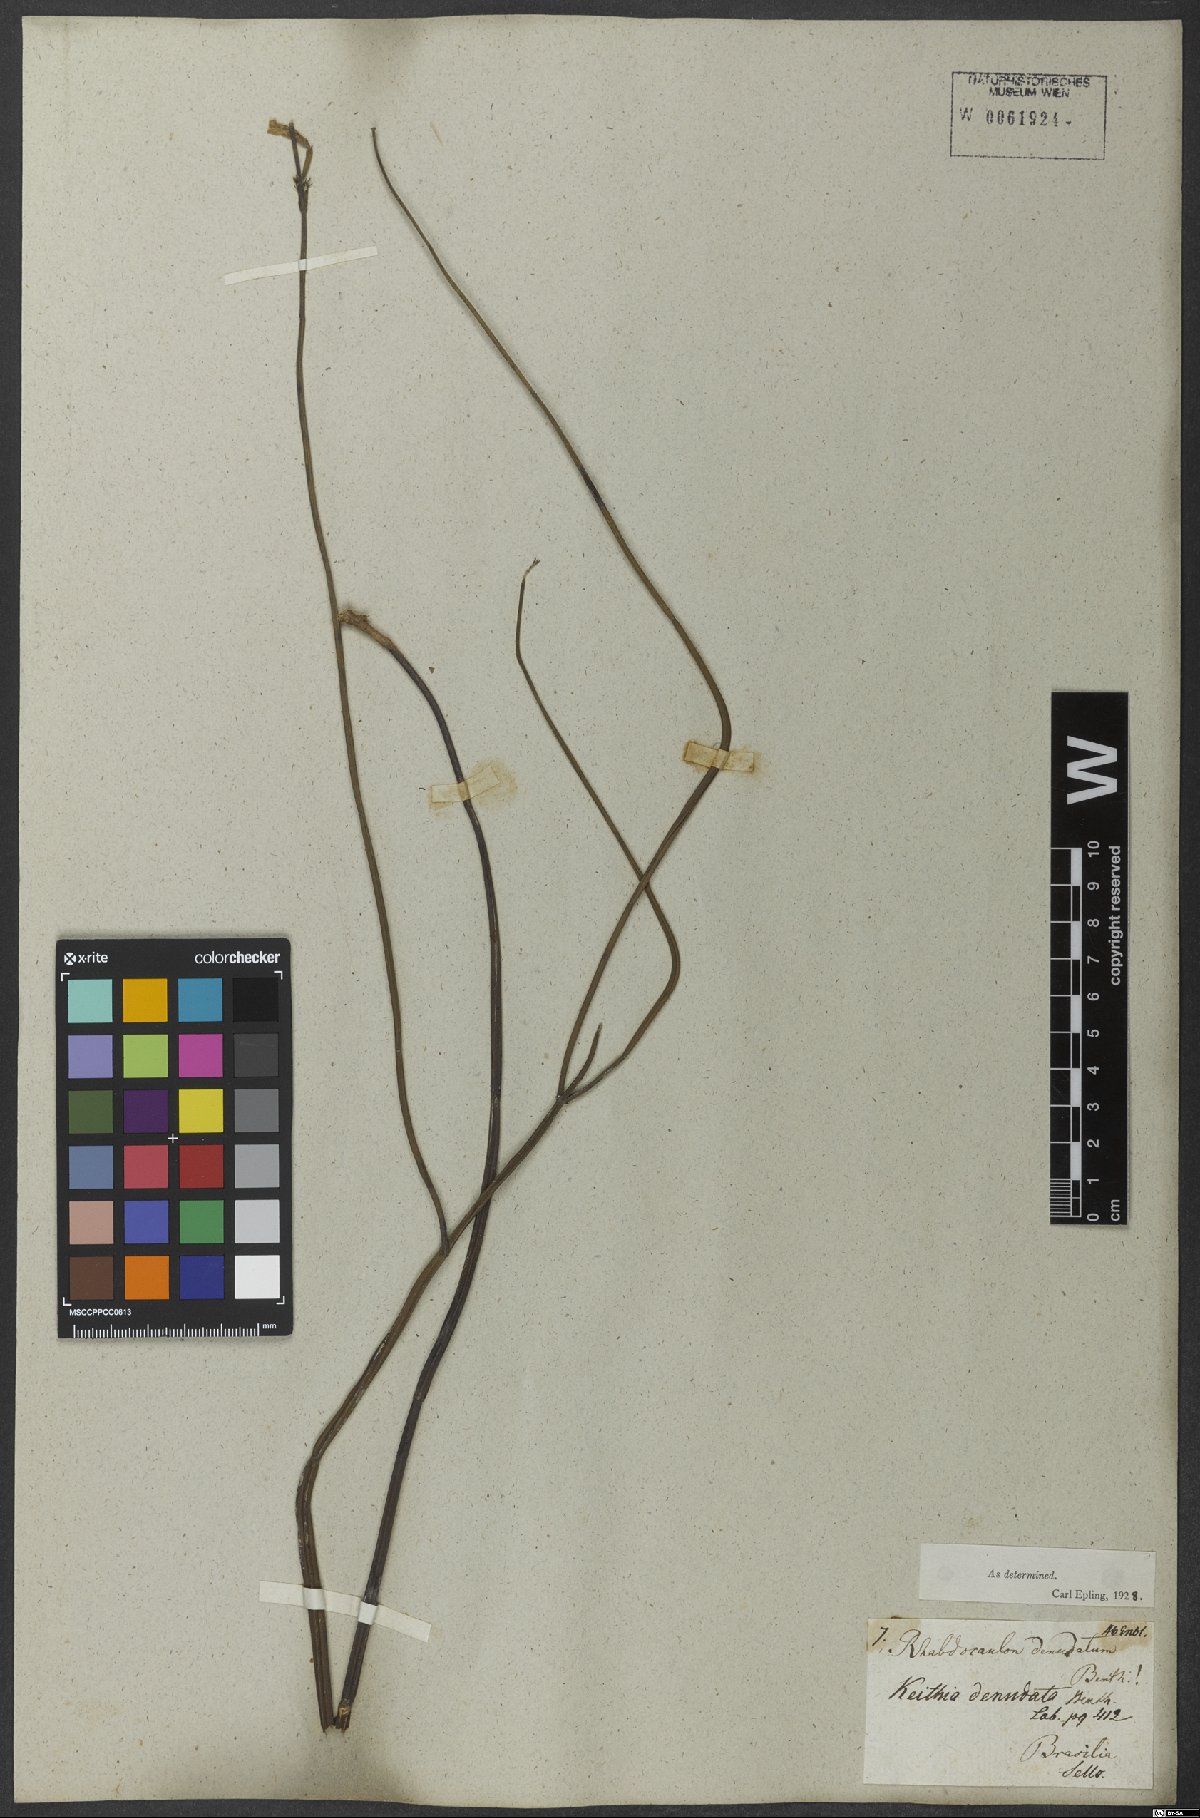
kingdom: Plantae
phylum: Tracheophyta
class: Magnoliopsida
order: Lamiales
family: Lamiaceae
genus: Rhabdocaulon
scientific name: Rhabdocaulon denudatum
